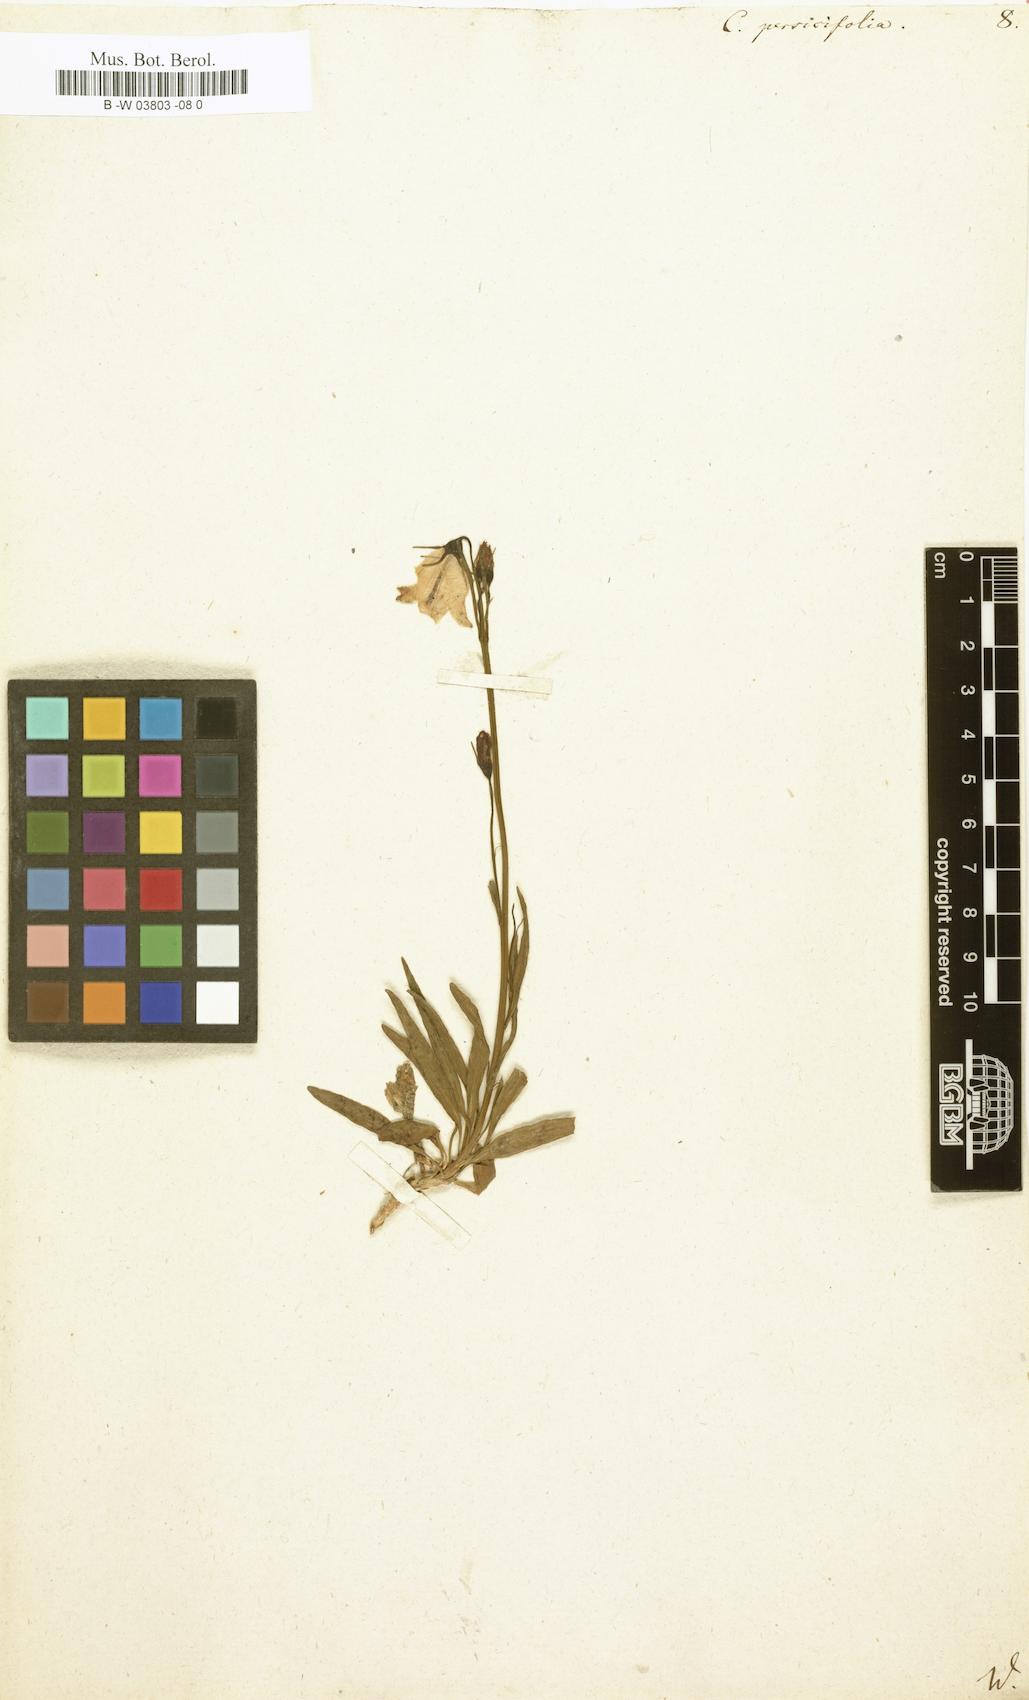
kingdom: Plantae
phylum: Tracheophyta
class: Magnoliopsida
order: Asterales
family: Campanulaceae
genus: Campanula
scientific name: Campanula persicifolia
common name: Peach-leaved bellflower
